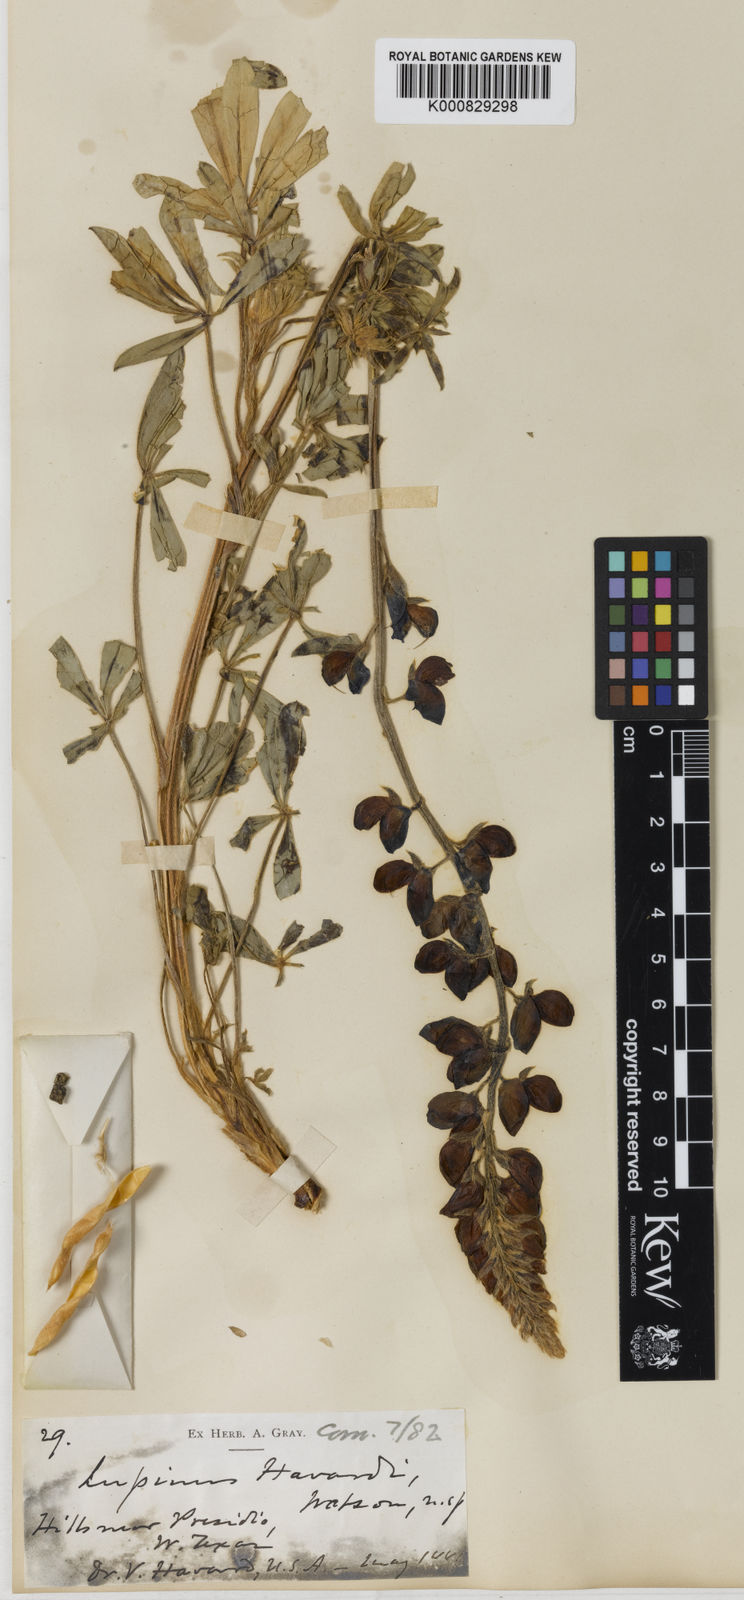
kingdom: Plantae
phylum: Tracheophyta
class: Magnoliopsida
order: Fabales
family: Fabaceae
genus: Lupinus
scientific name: Lupinus havardii
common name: Chisos bluebonnet
